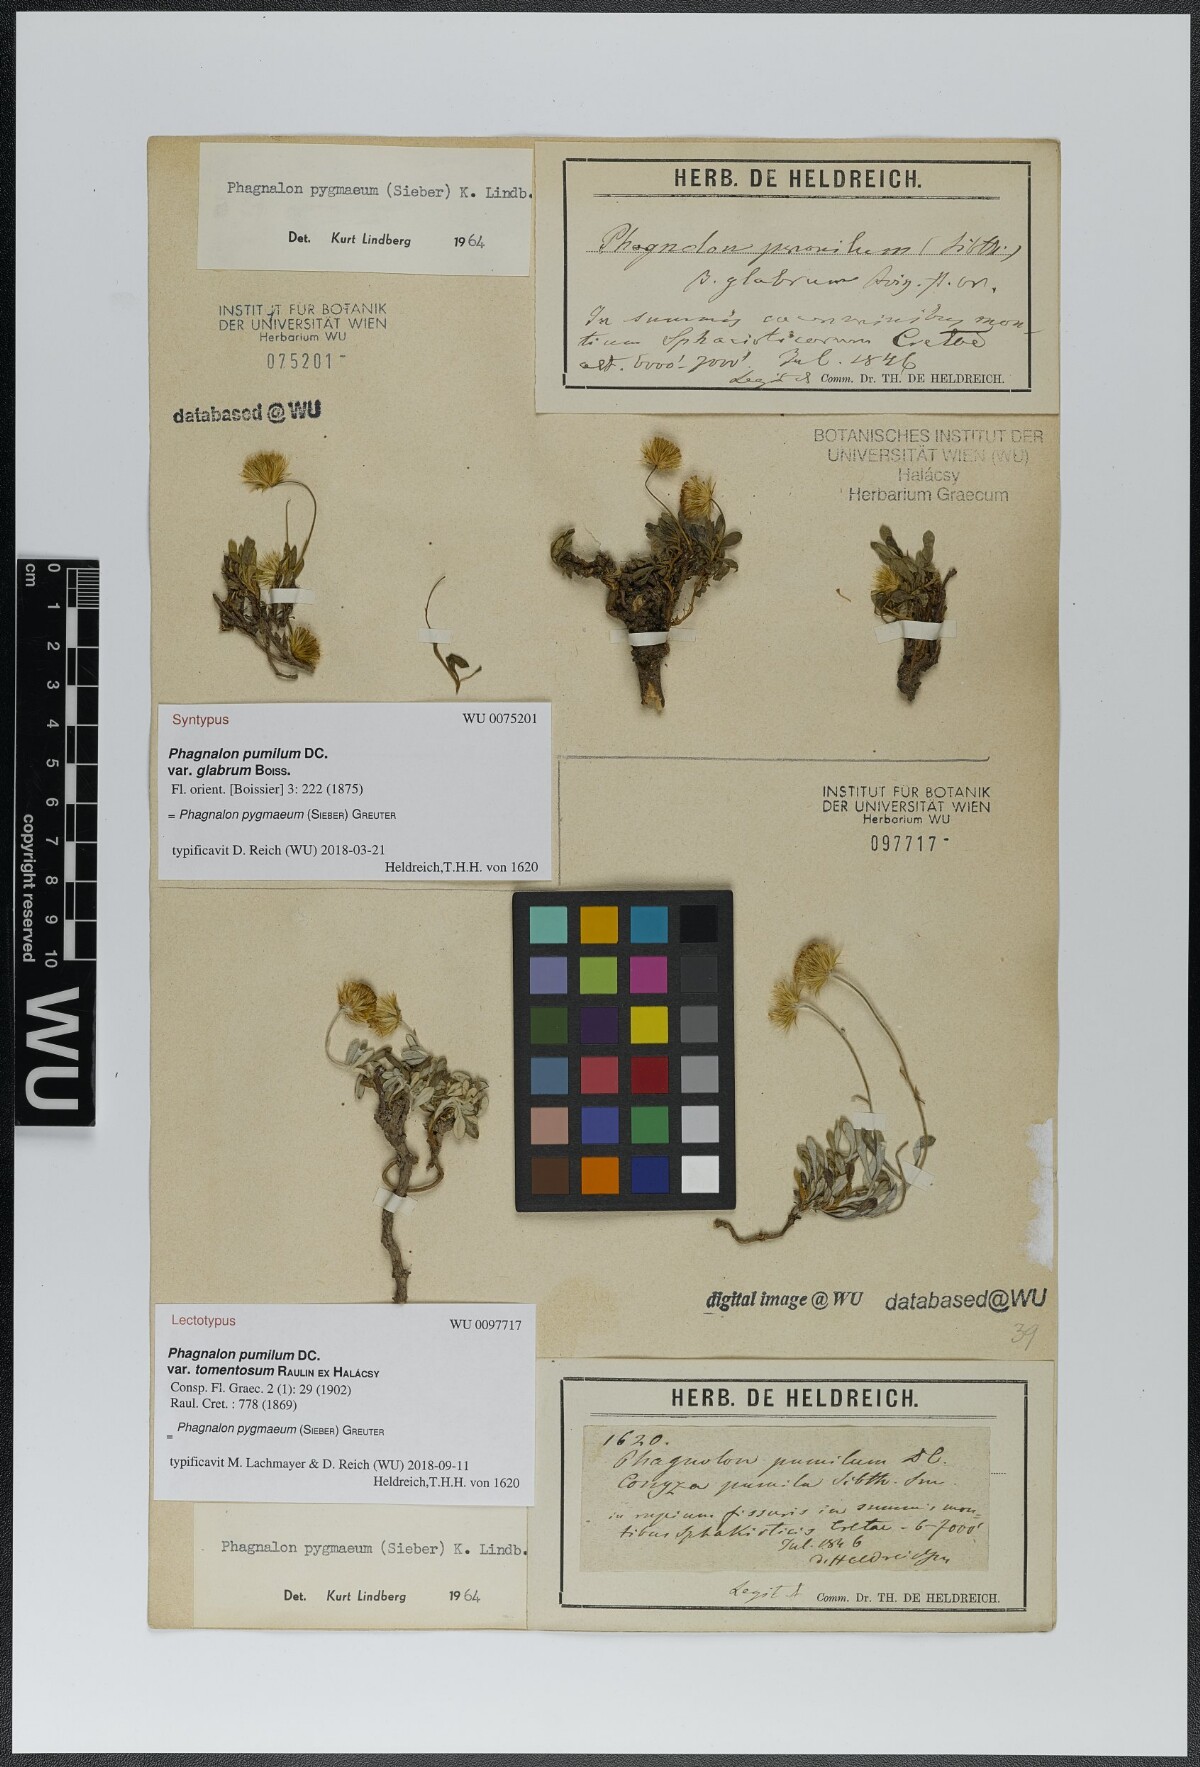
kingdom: Plantae
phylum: Tracheophyta
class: Magnoliopsida
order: Asterales
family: Asteraceae
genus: Phagnalon
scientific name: Phagnalon pygmaeum
